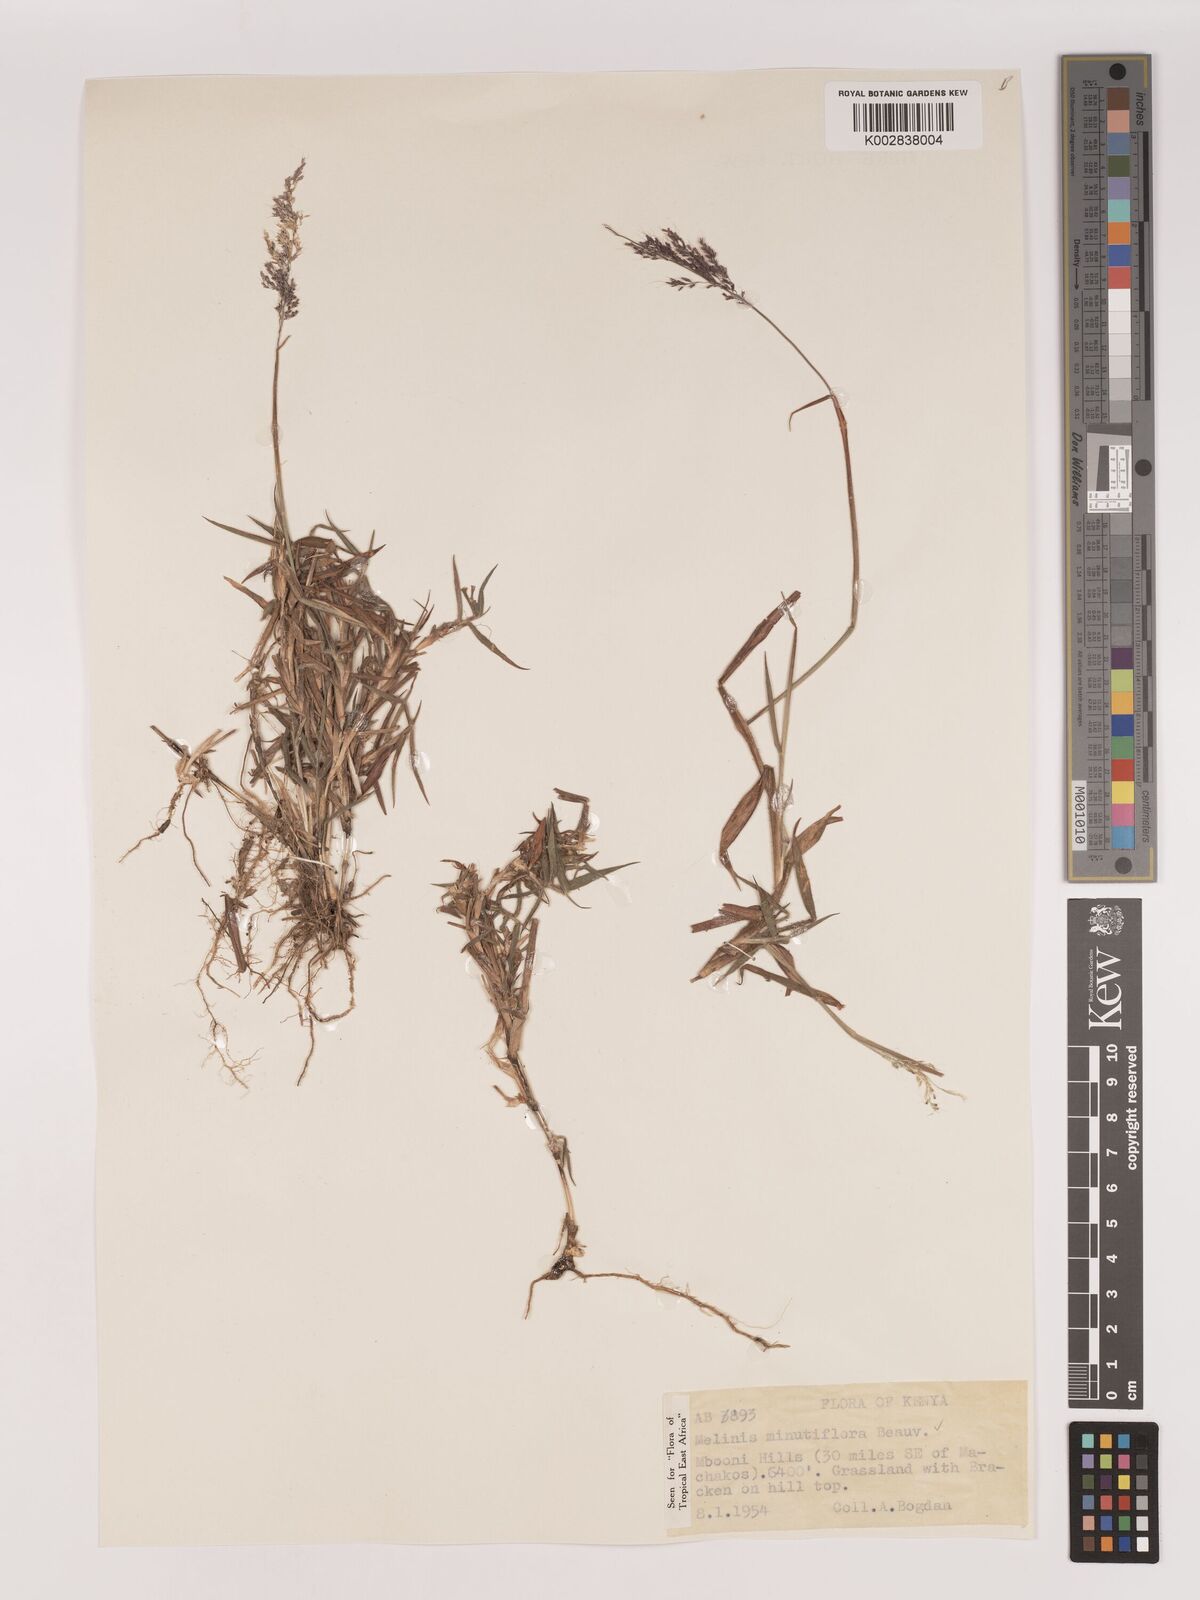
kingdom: Plantae
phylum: Tracheophyta
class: Liliopsida
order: Poales
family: Poaceae
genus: Melinis
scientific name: Melinis minutiflora
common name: Molassesgrass
